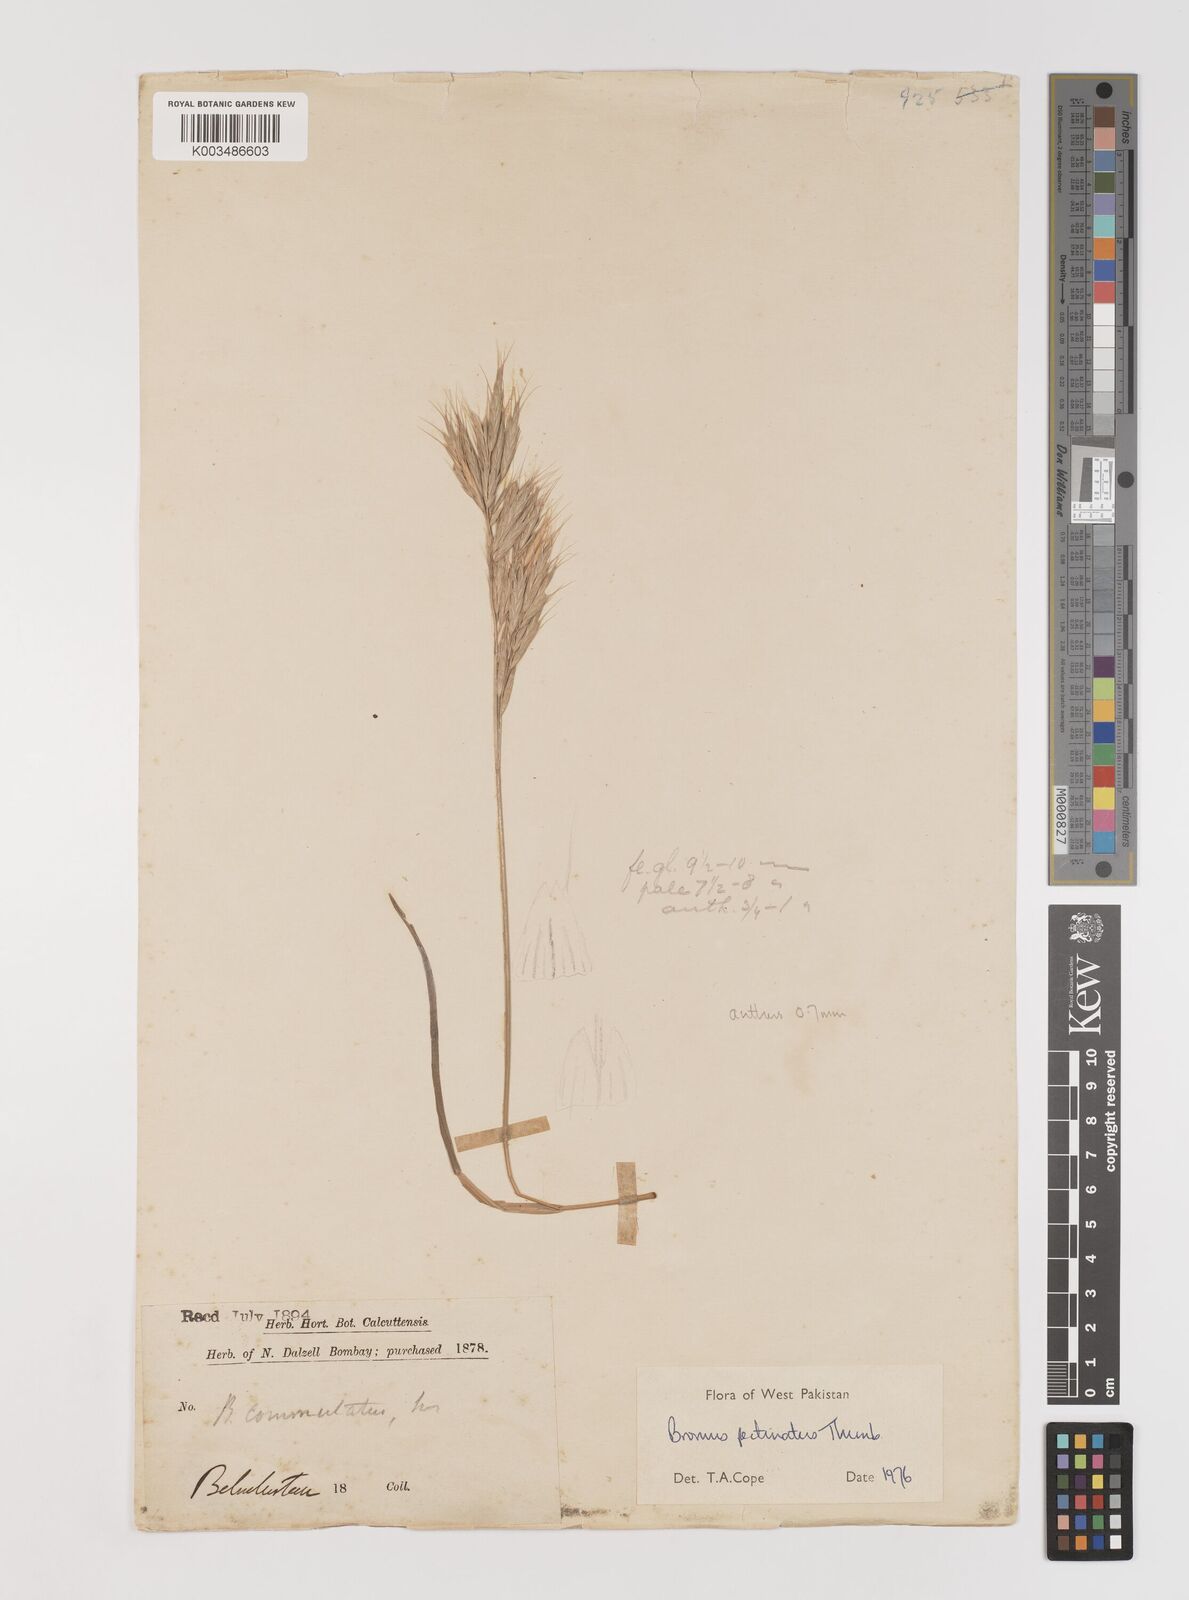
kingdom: Plantae
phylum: Tracheophyta
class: Liliopsida
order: Poales
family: Poaceae
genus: Bromus
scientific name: Bromus pectinatus
